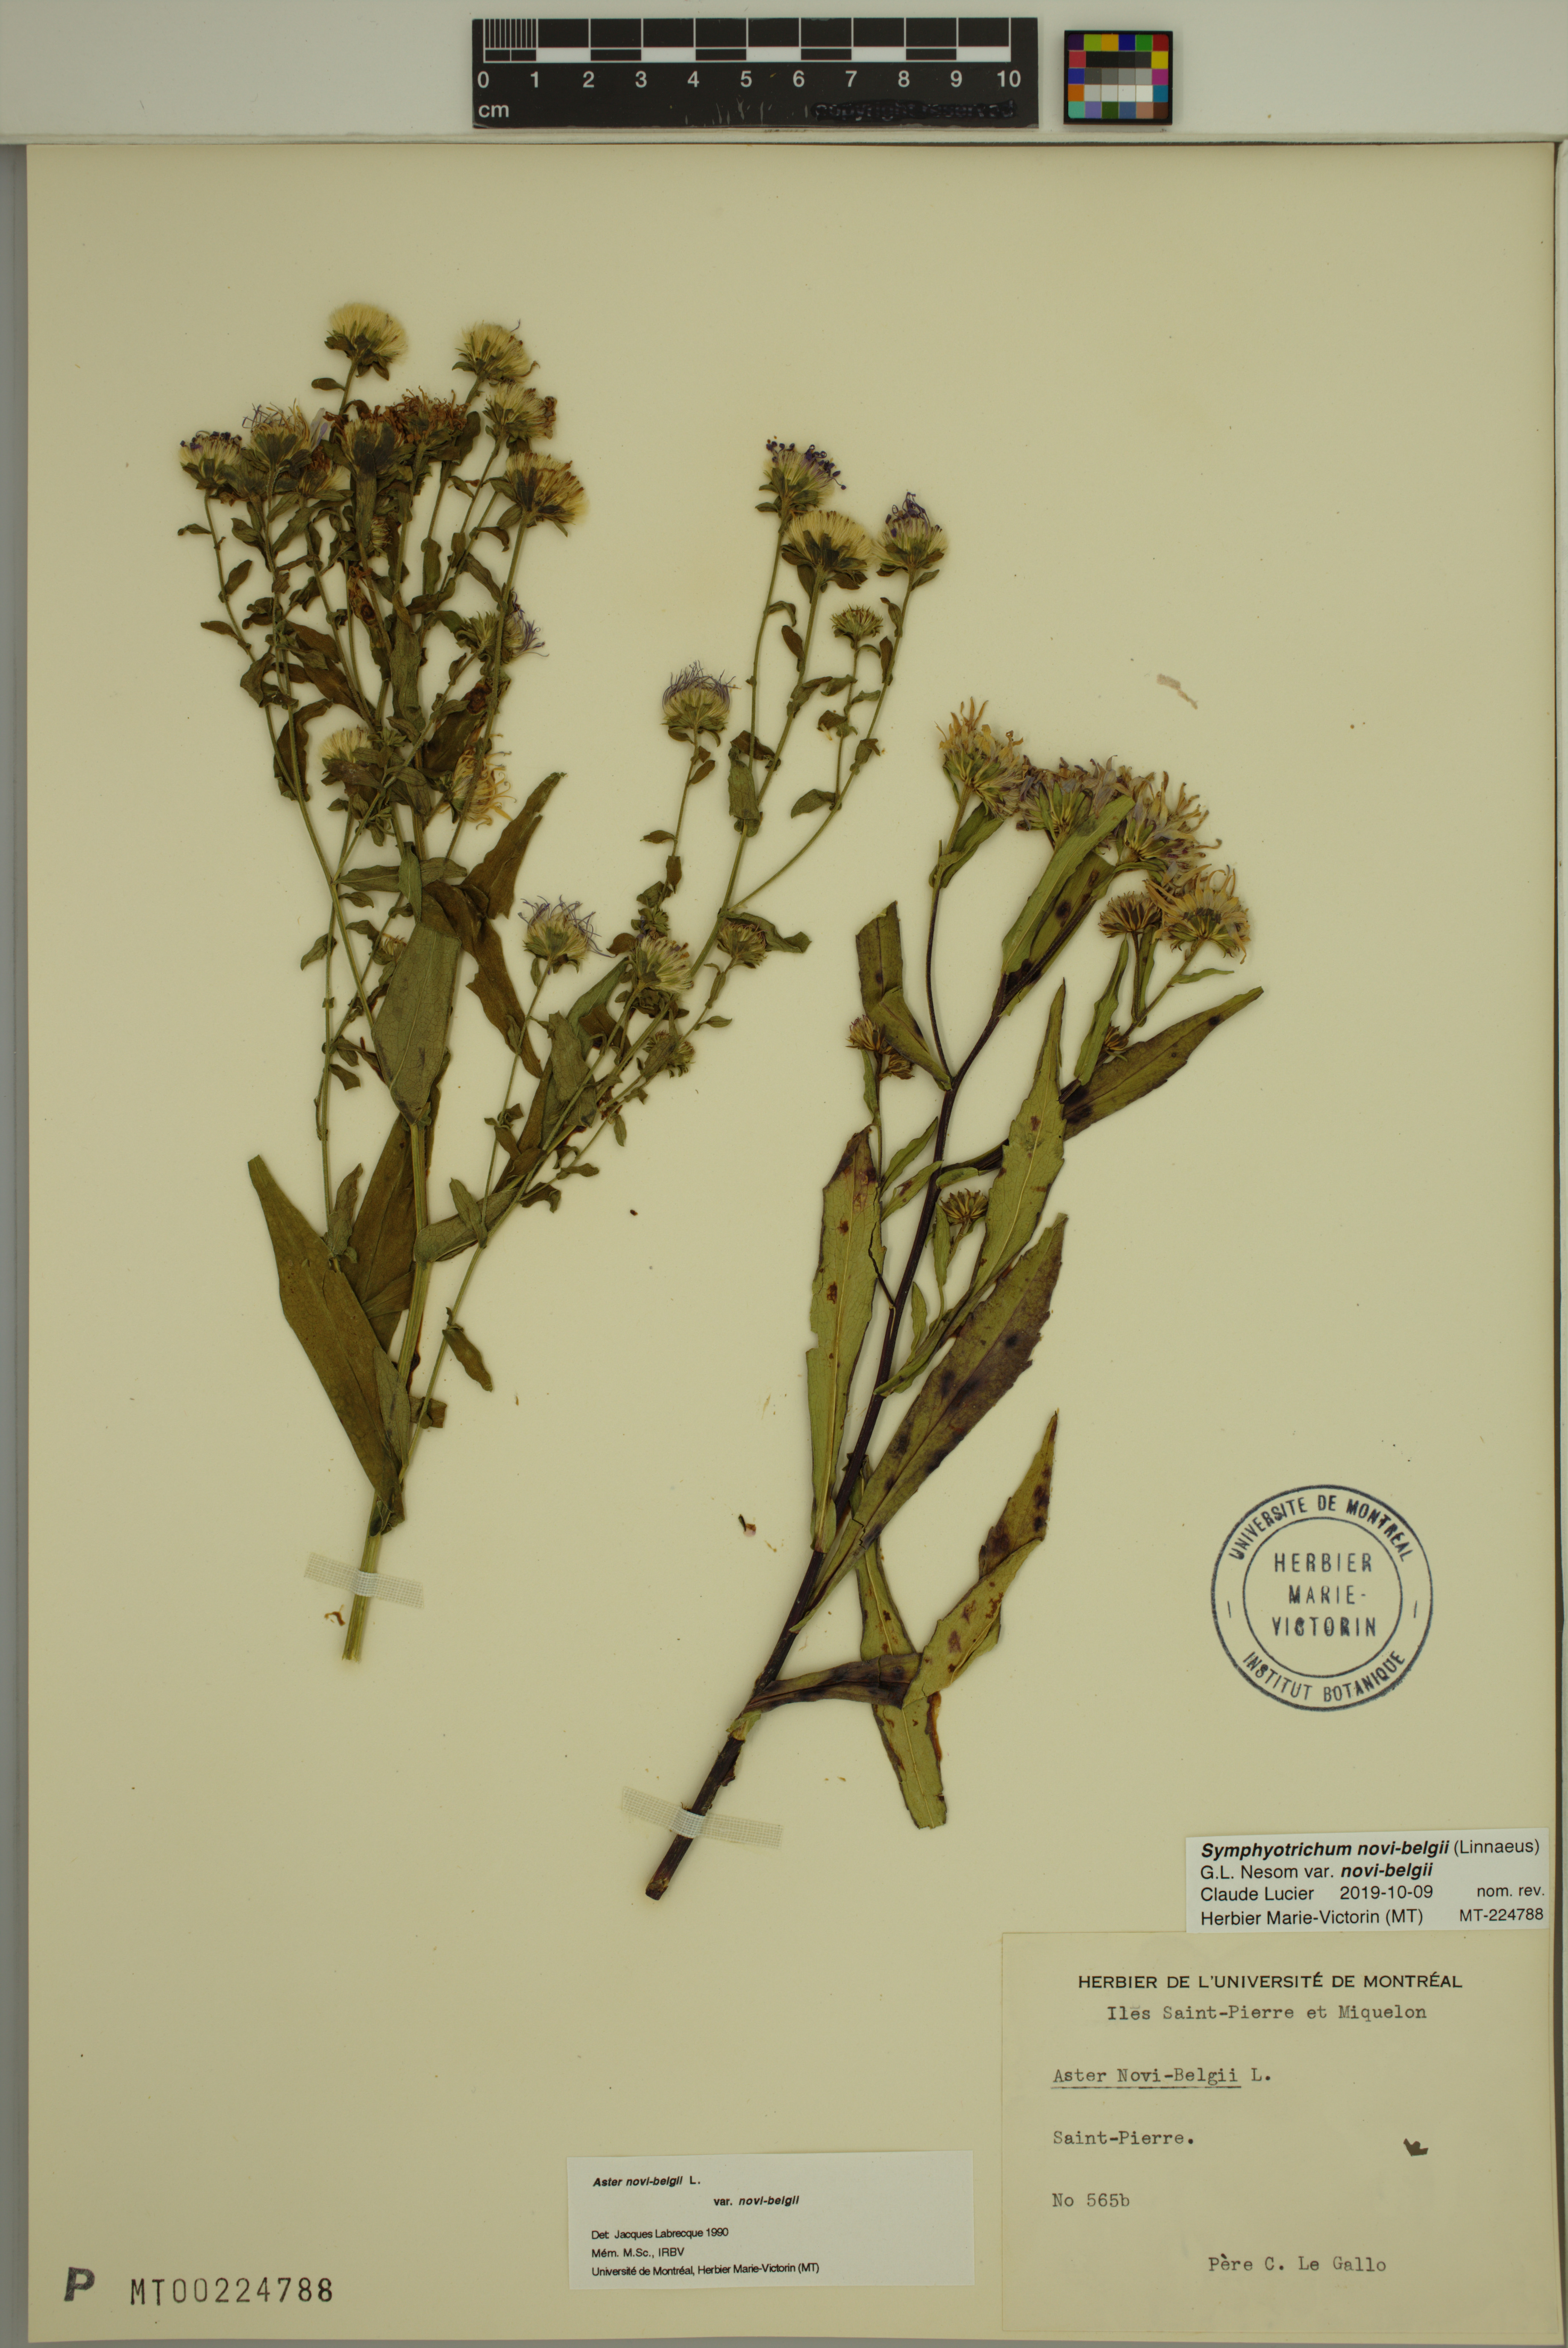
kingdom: Plantae
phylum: Tracheophyta
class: Magnoliopsida
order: Asterales
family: Asteraceae
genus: Symphyotrichum
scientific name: Symphyotrichum novi-belgii
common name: Michaelmas daisy
